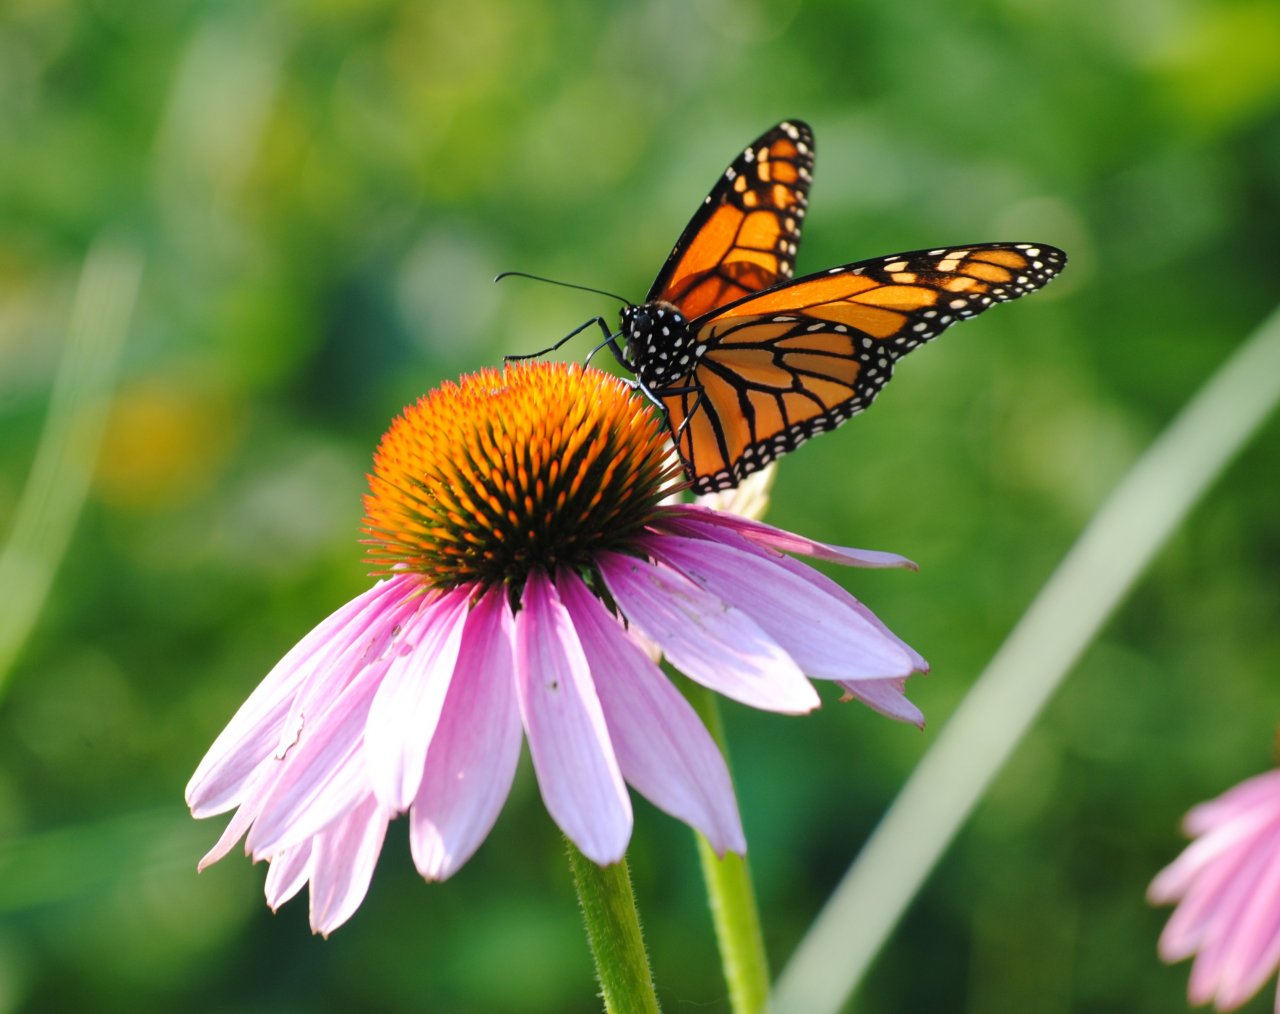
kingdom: Animalia
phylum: Arthropoda
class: Insecta
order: Lepidoptera
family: Nymphalidae
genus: Danaus
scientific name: Danaus plexippus
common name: Monarch
